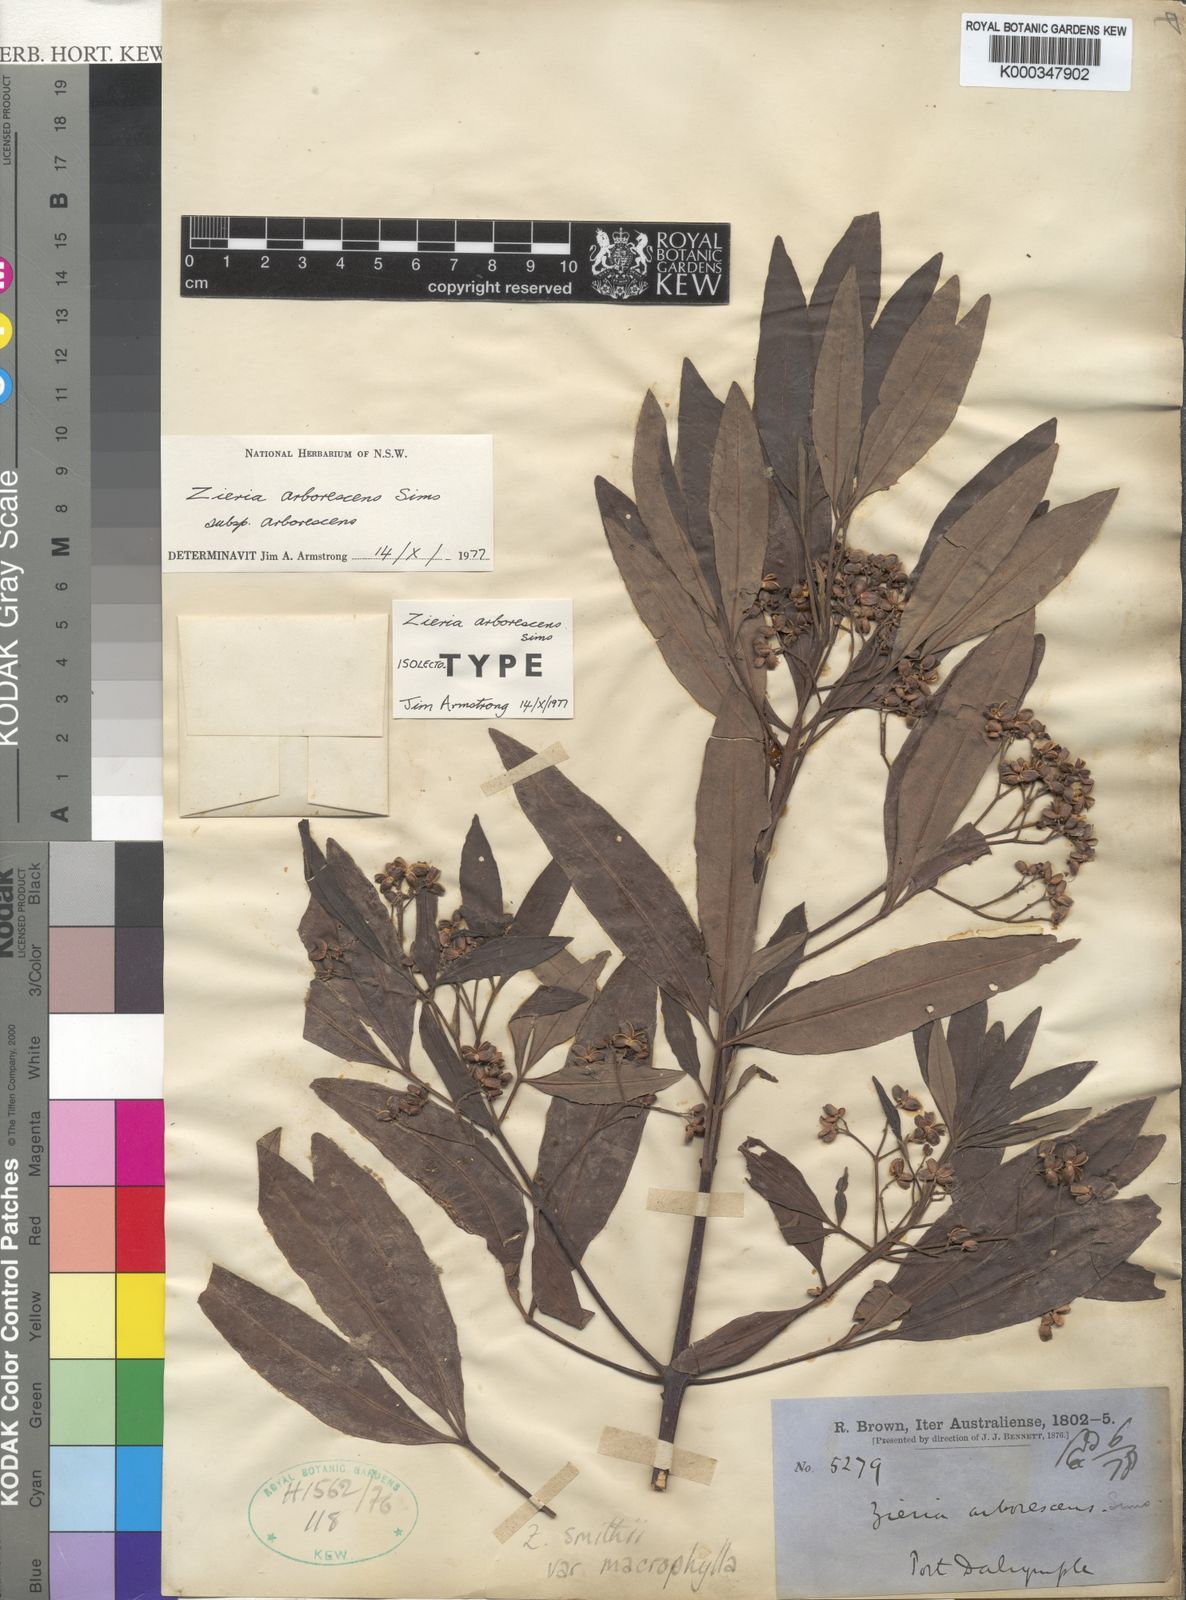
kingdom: Plantae
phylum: Tracheophyta
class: Magnoliopsida
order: Sapindales
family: Rutaceae
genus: Zieria
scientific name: Zieria arborescens
